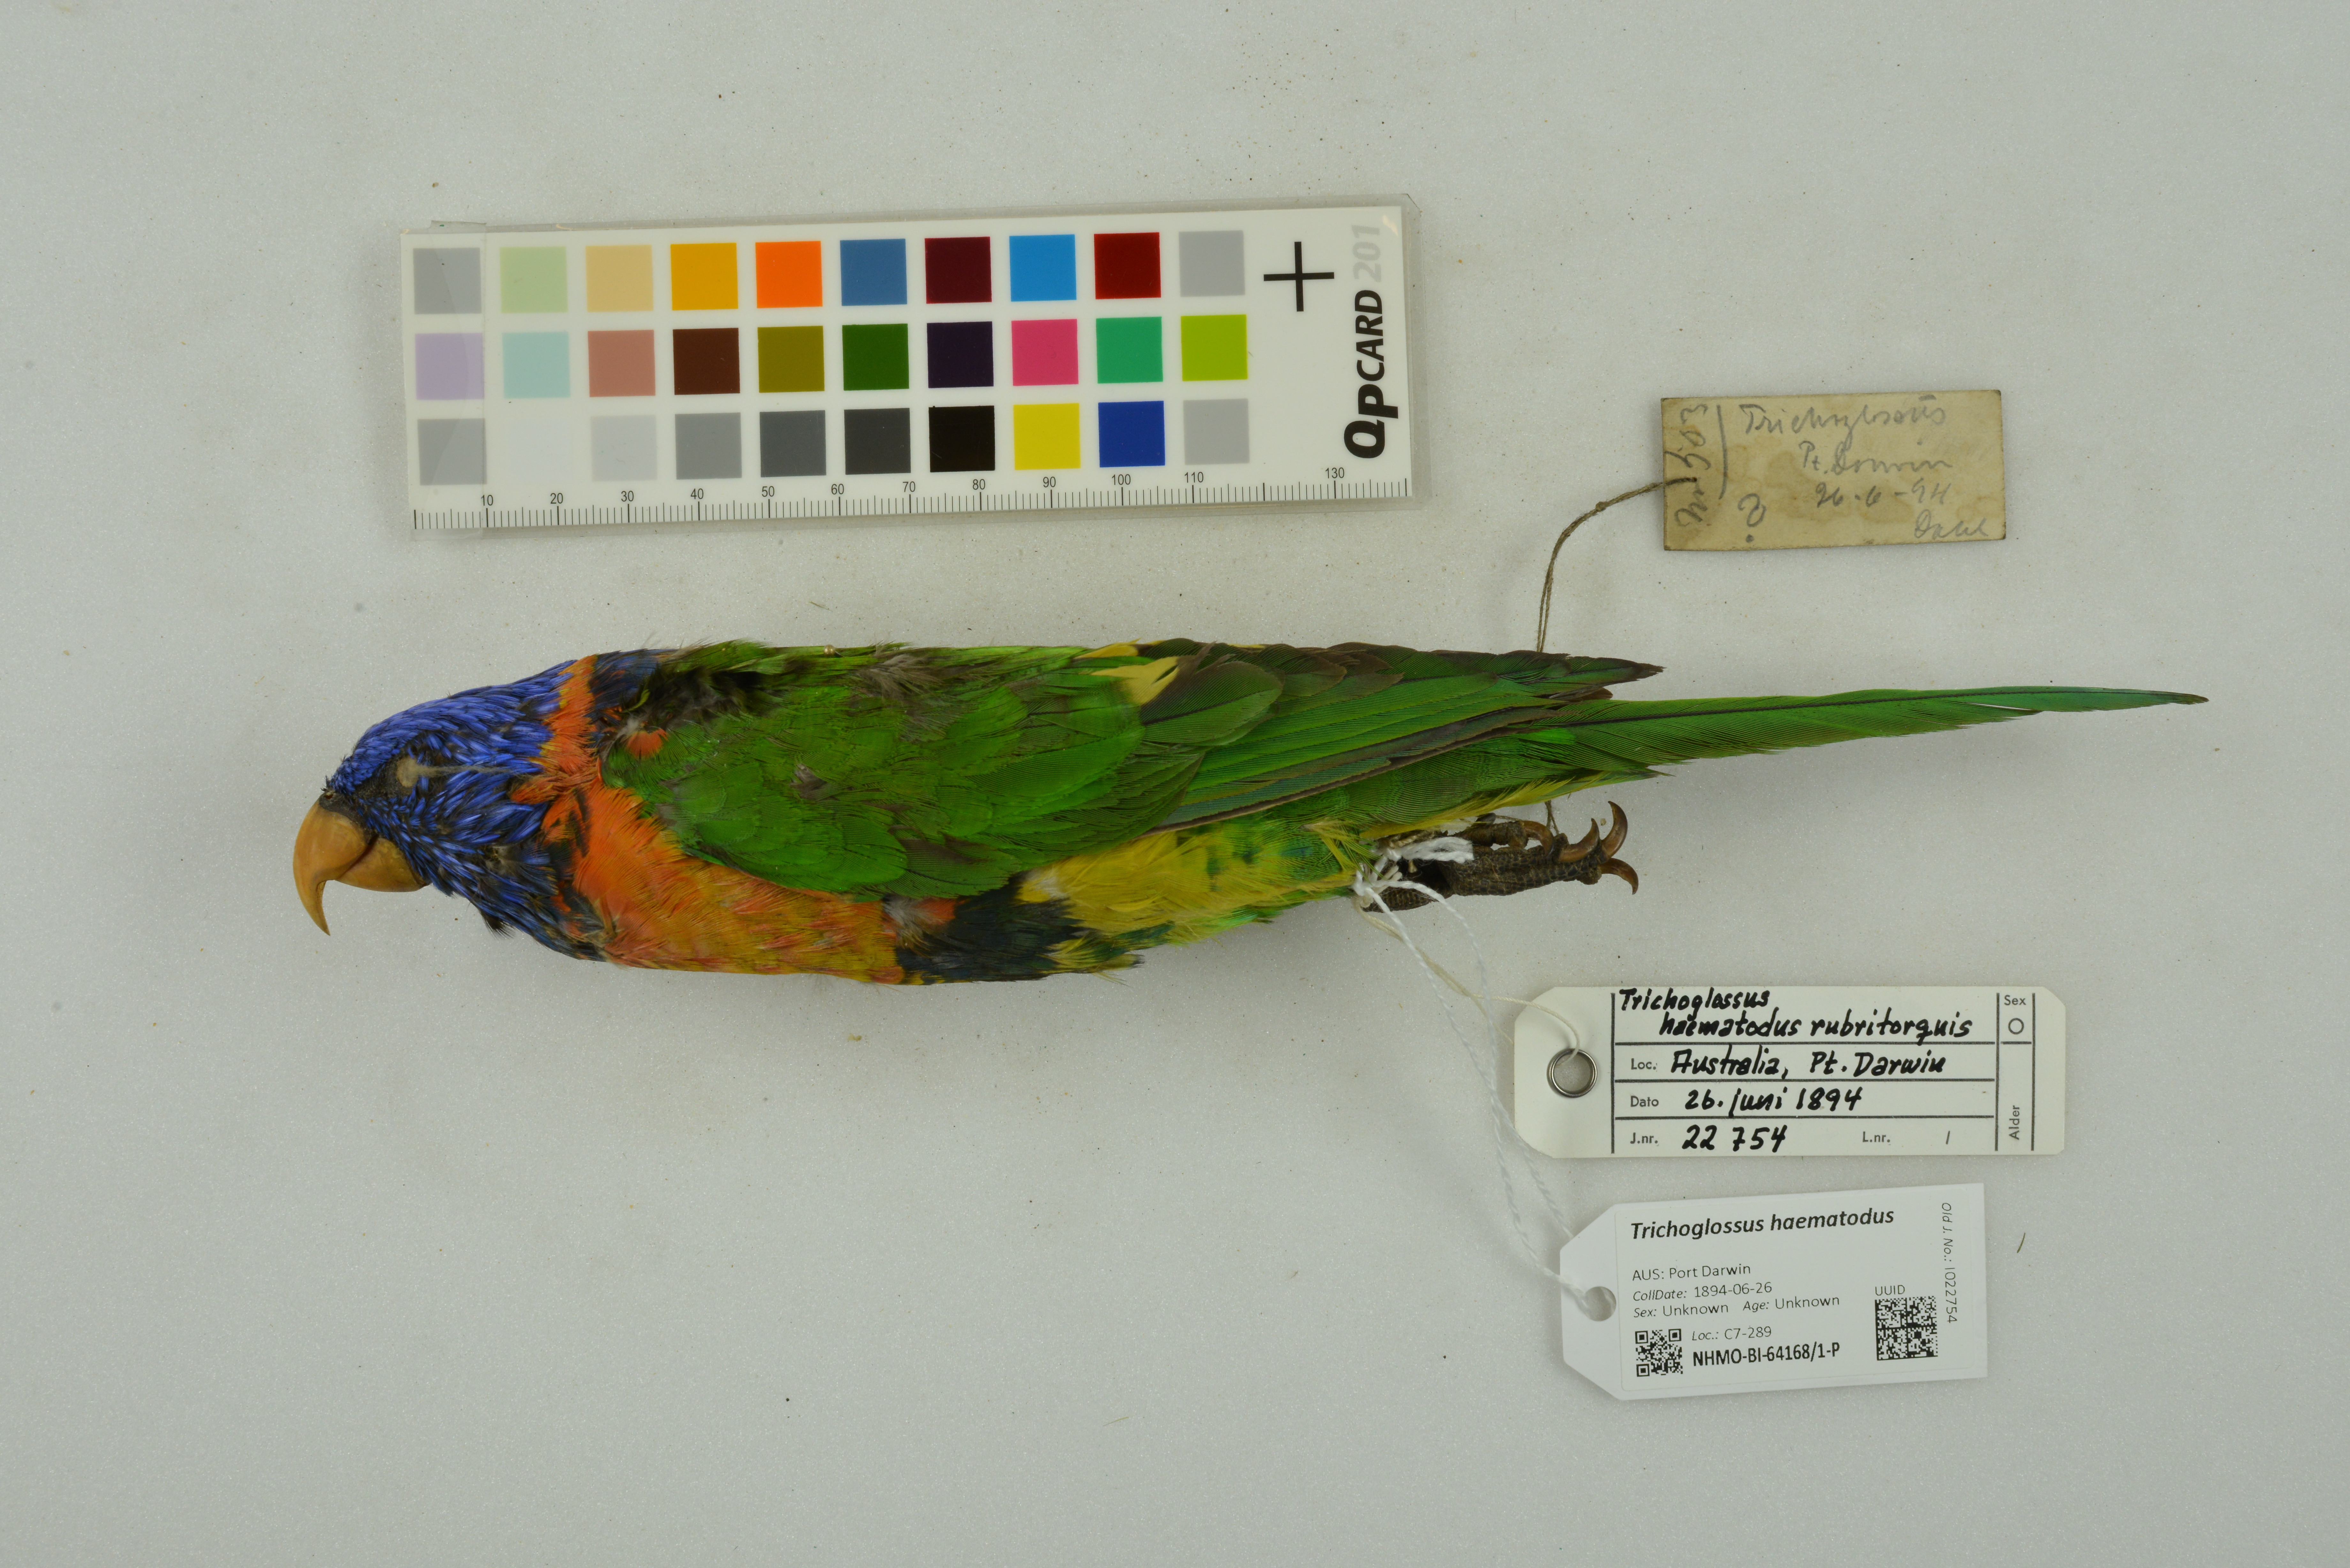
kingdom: Animalia
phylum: Chordata
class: Aves
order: Psittaciformes
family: Psittacidae
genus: Trichoglossus
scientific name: Trichoglossus haematodus
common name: Coconut lorikeet
